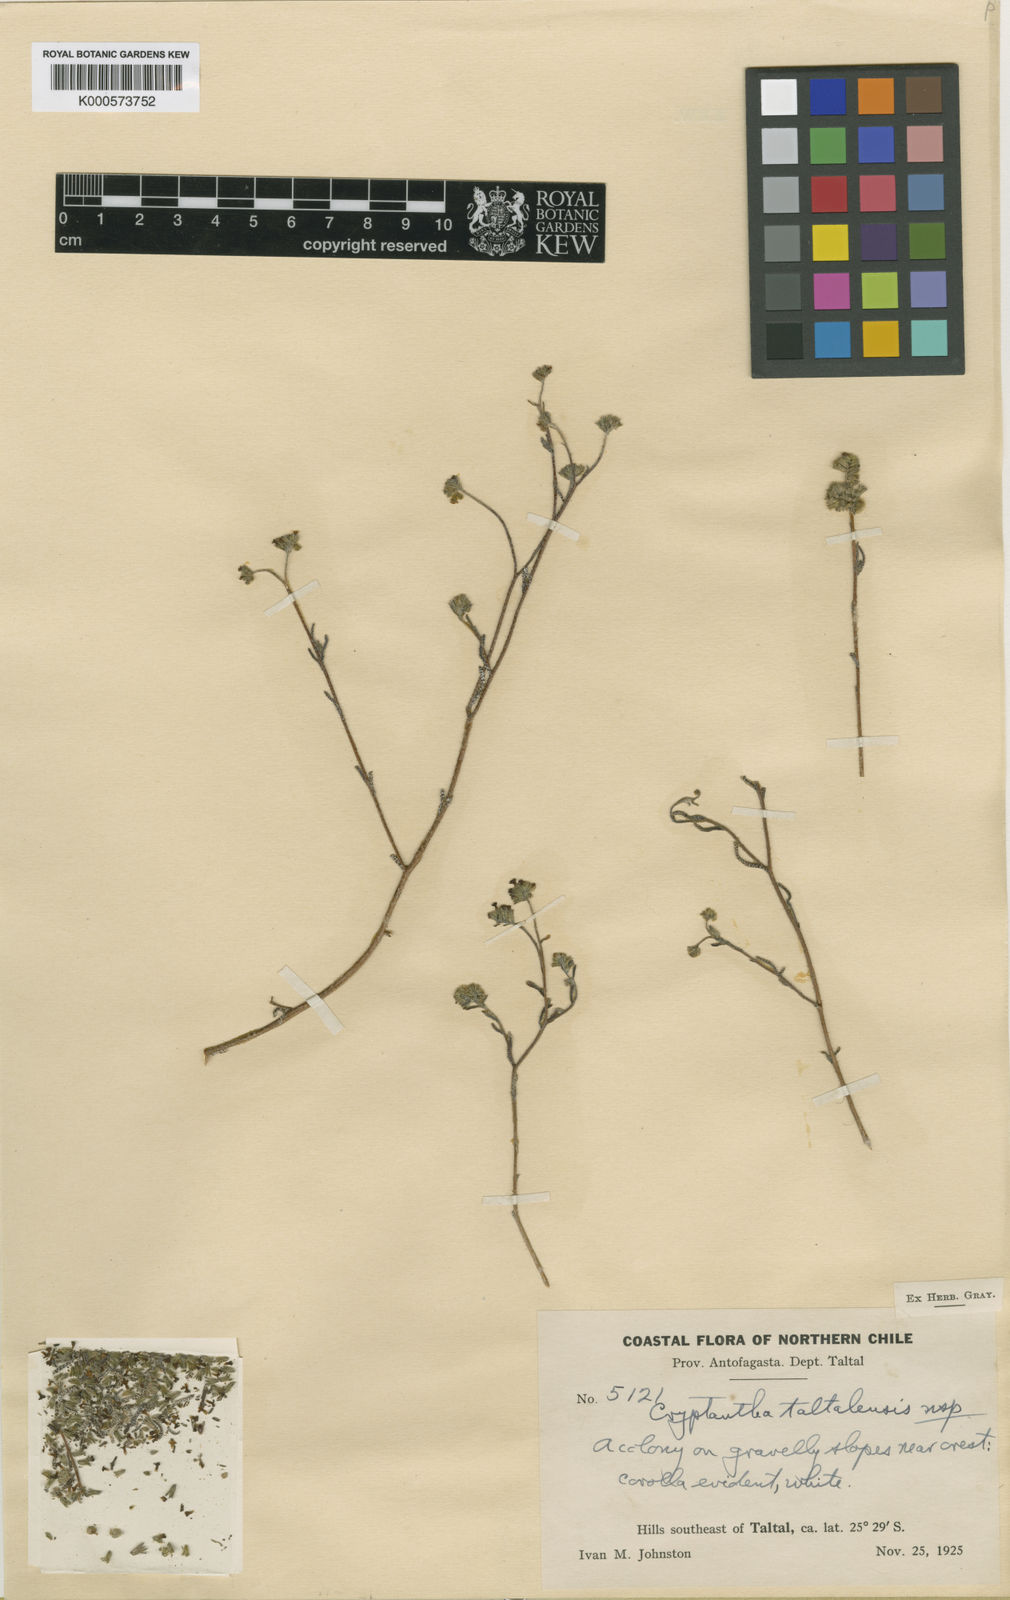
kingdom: Plantae
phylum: Tracheophyta
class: Magnoliopsida
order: Boraginales
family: Boraginaceae
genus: Cryptantha
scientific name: Cryptantha taltalensis
